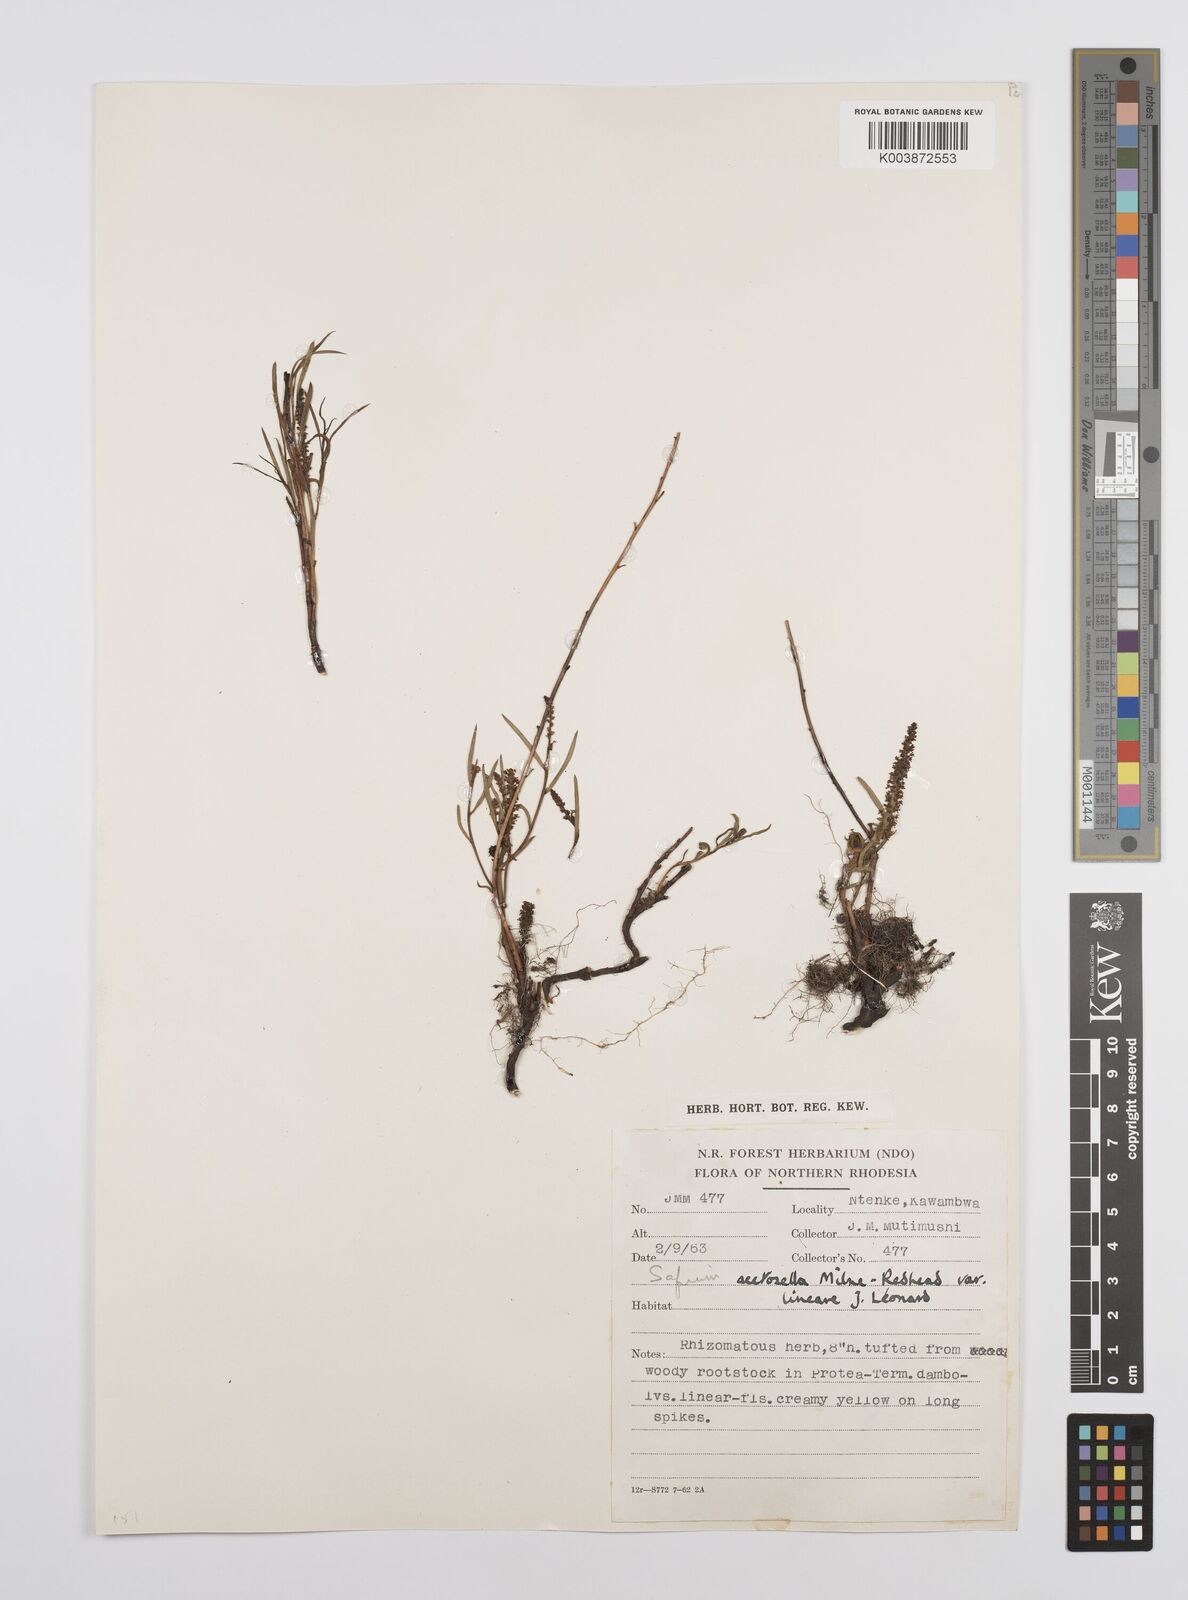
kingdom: Plantae
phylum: Tracheophyta
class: Magnoliopsida
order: Malpighiales
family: Euphorbiaceae
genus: Microstachys
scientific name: Microstachys acetosella
